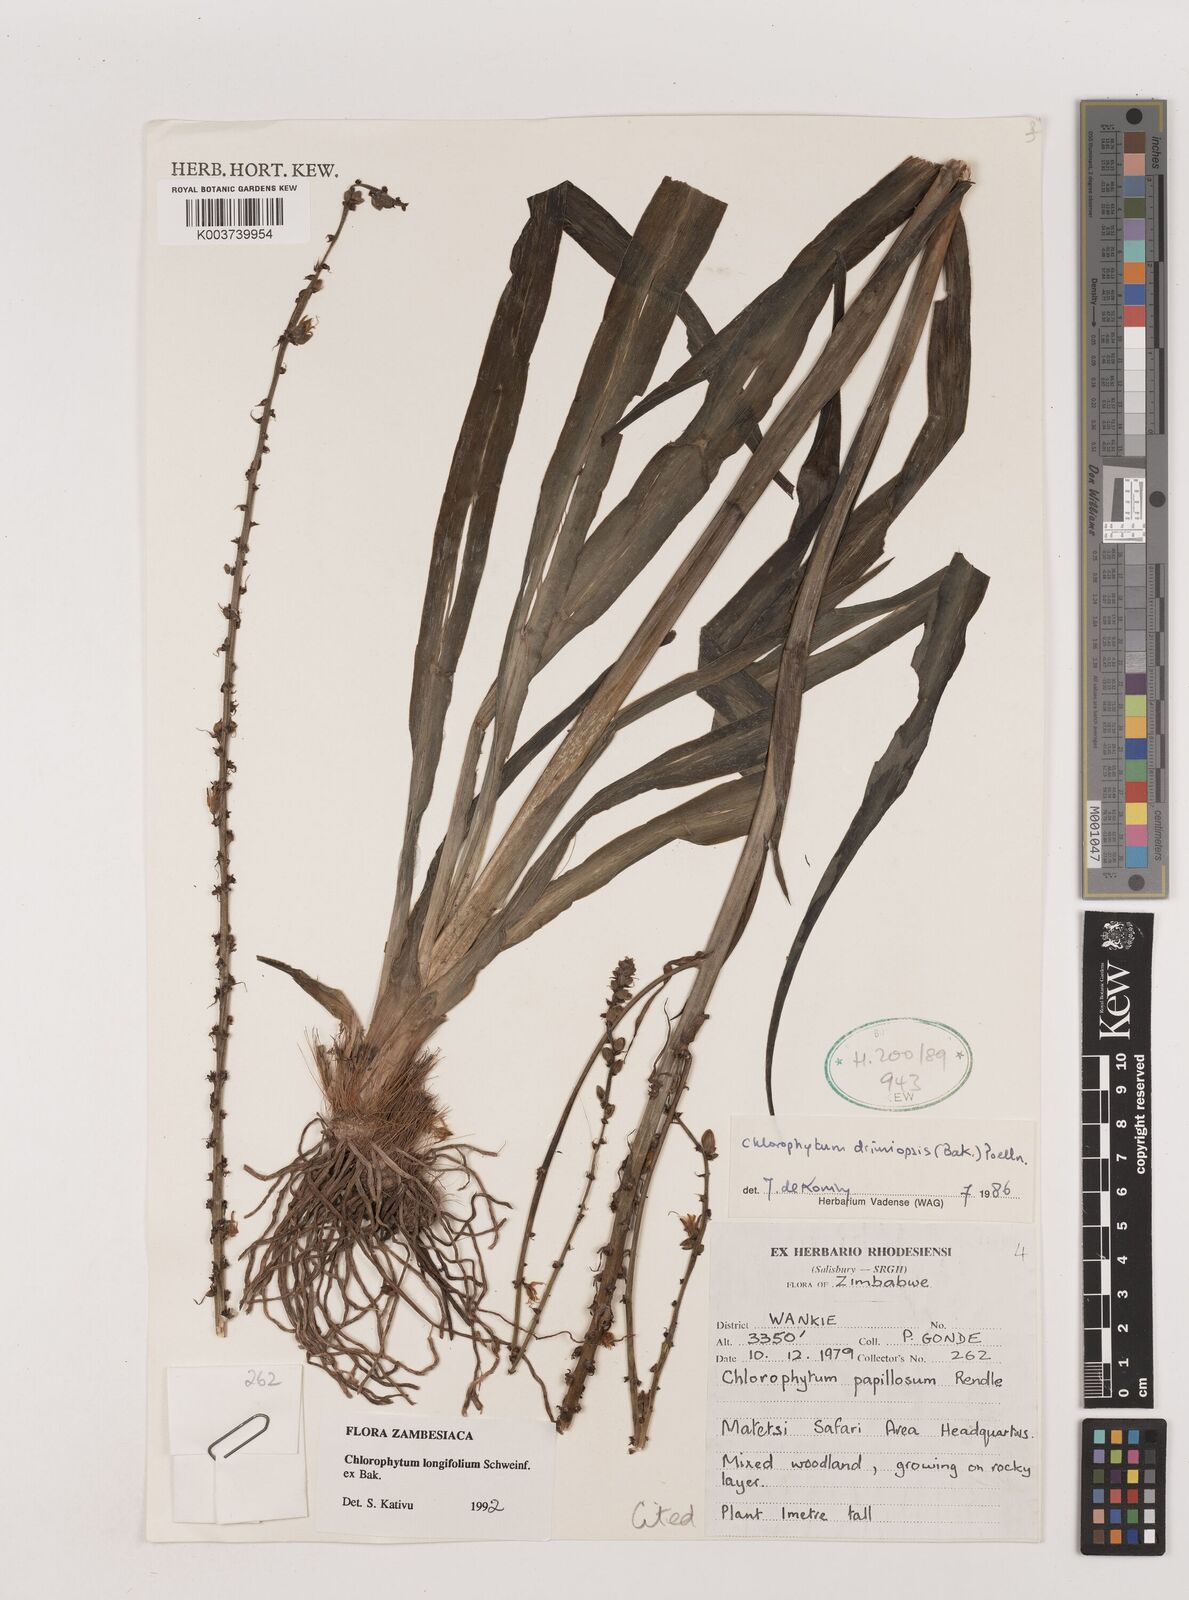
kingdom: Plantae
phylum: Tracheophyta
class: Liliopsida
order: Asparagales
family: Asparagaceae
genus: Chlorophytum
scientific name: Chlorophytum longifolium
